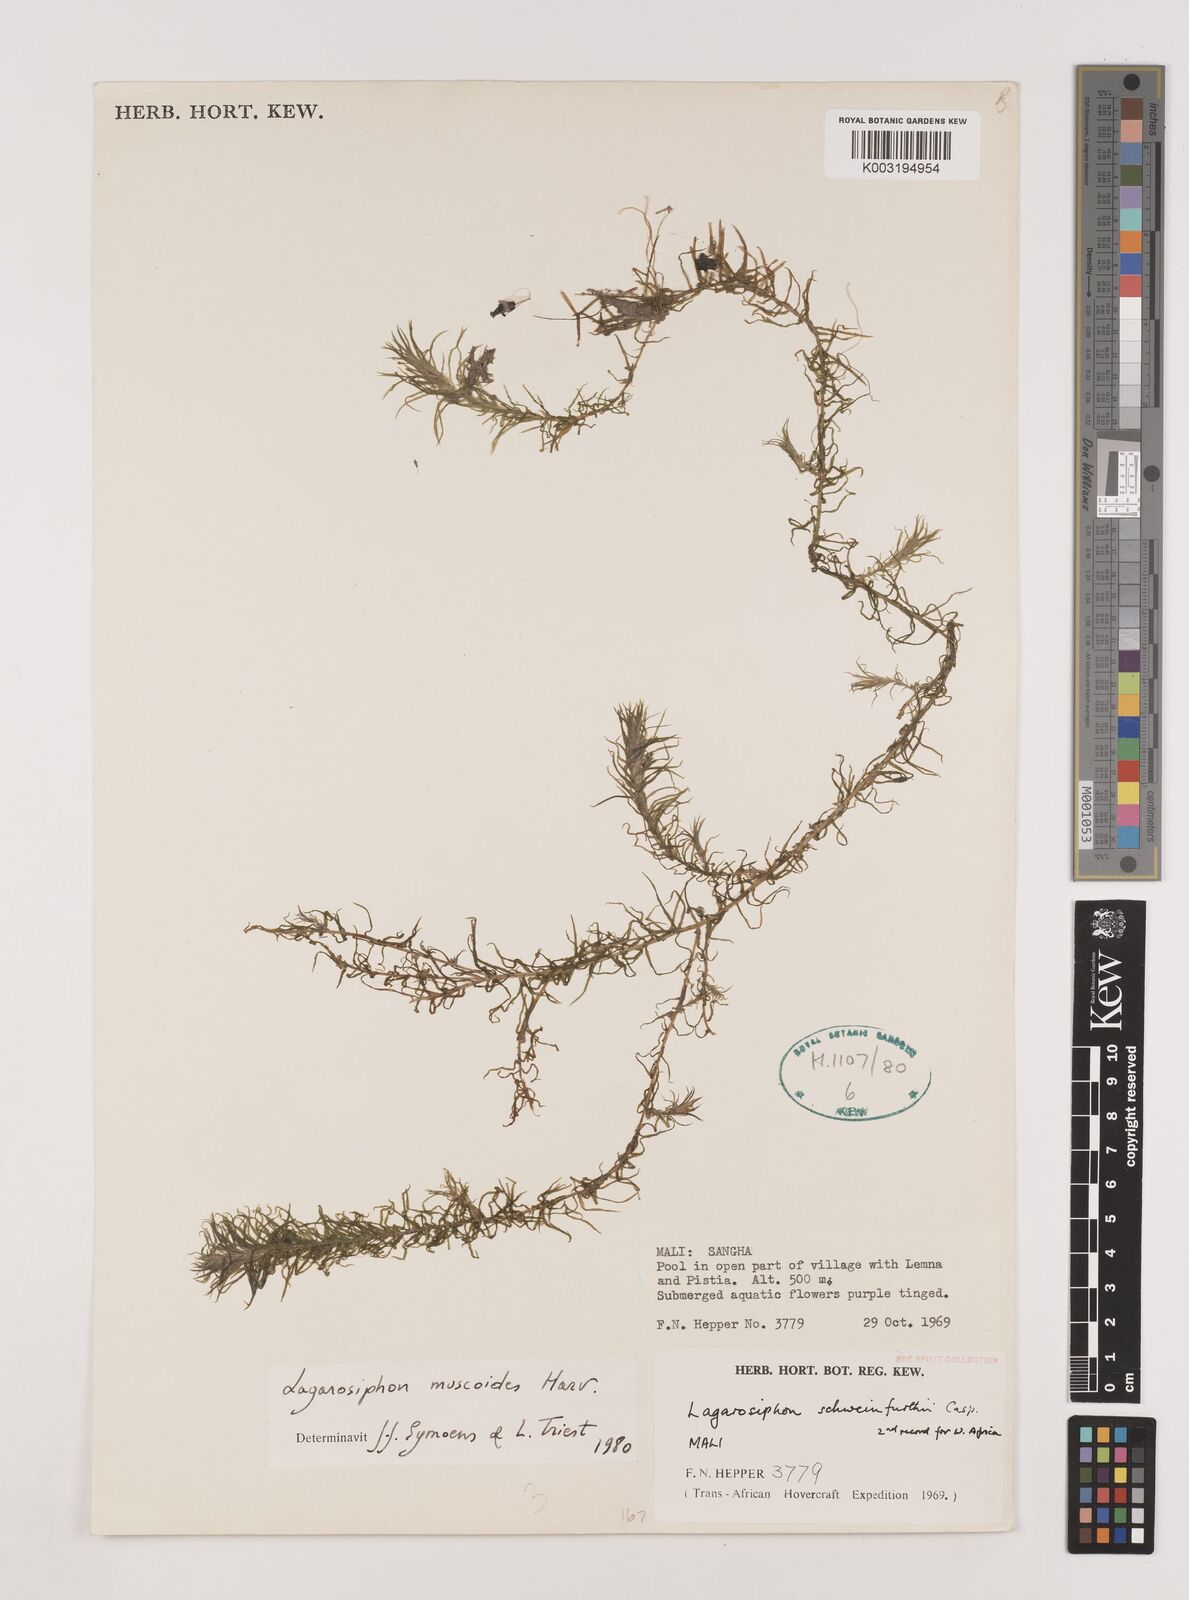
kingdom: Plantae
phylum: Tracheophyta
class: Liliopsida
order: Alismatales
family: Hydrocharitaceae
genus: Lagarosiphon
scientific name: Lagarosiphon muscoides
